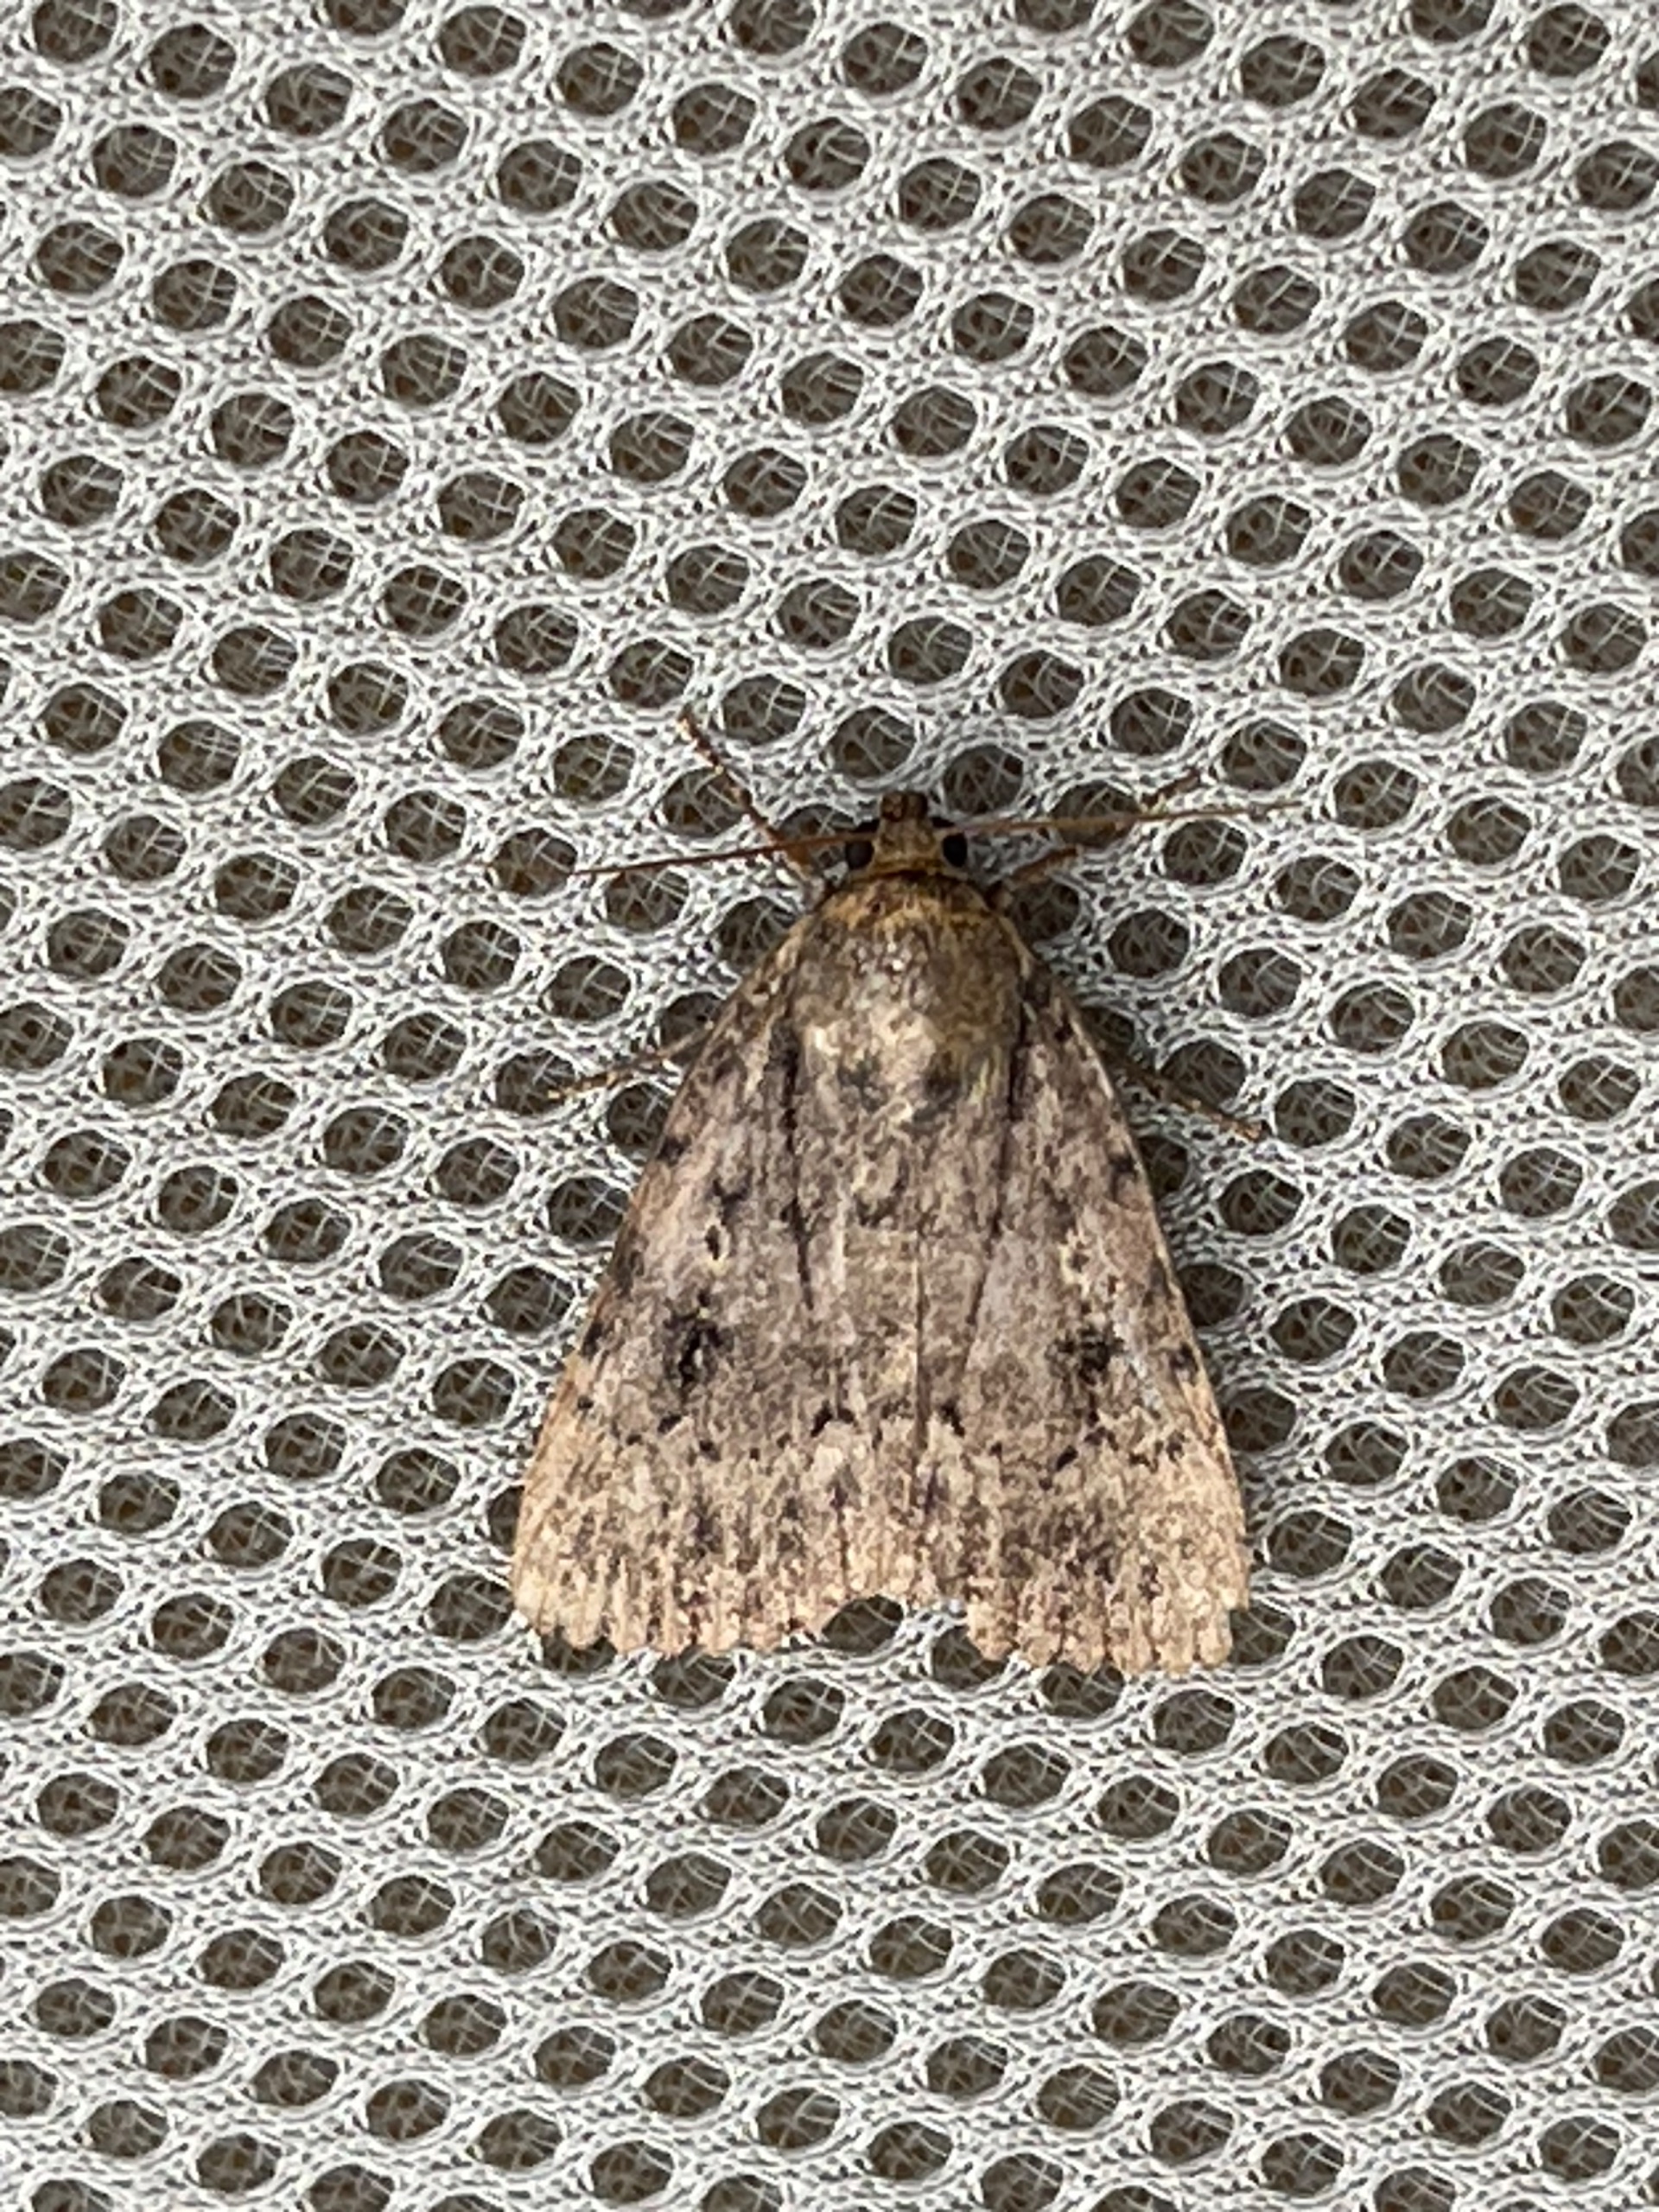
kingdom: Animalia
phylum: Arthropoda
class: Insecta
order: Lepidoptera
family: Noctuidae
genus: Amphipyra
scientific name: Amphipyra pyramidea
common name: Pyramideugle
